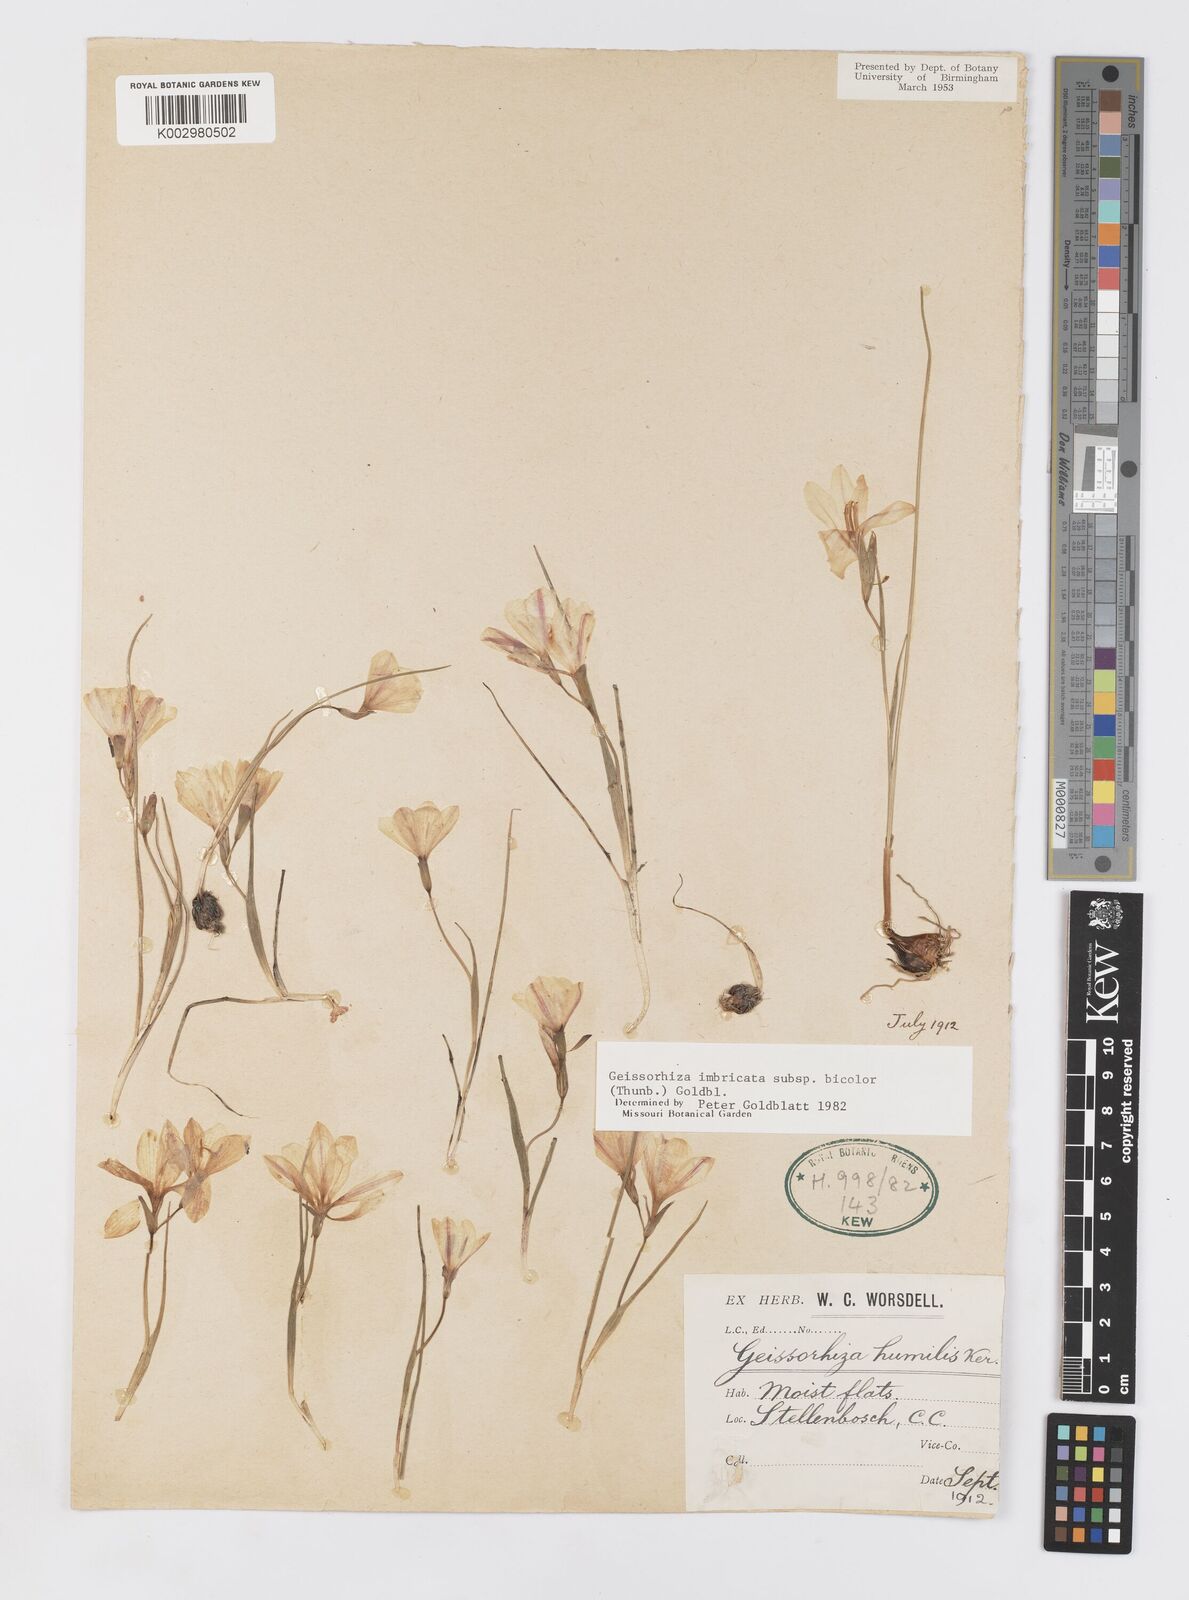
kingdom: Plantae
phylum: Tracheophyta
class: Liliopsida
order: Asparagales
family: Iridaceae
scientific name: Iridaceae
